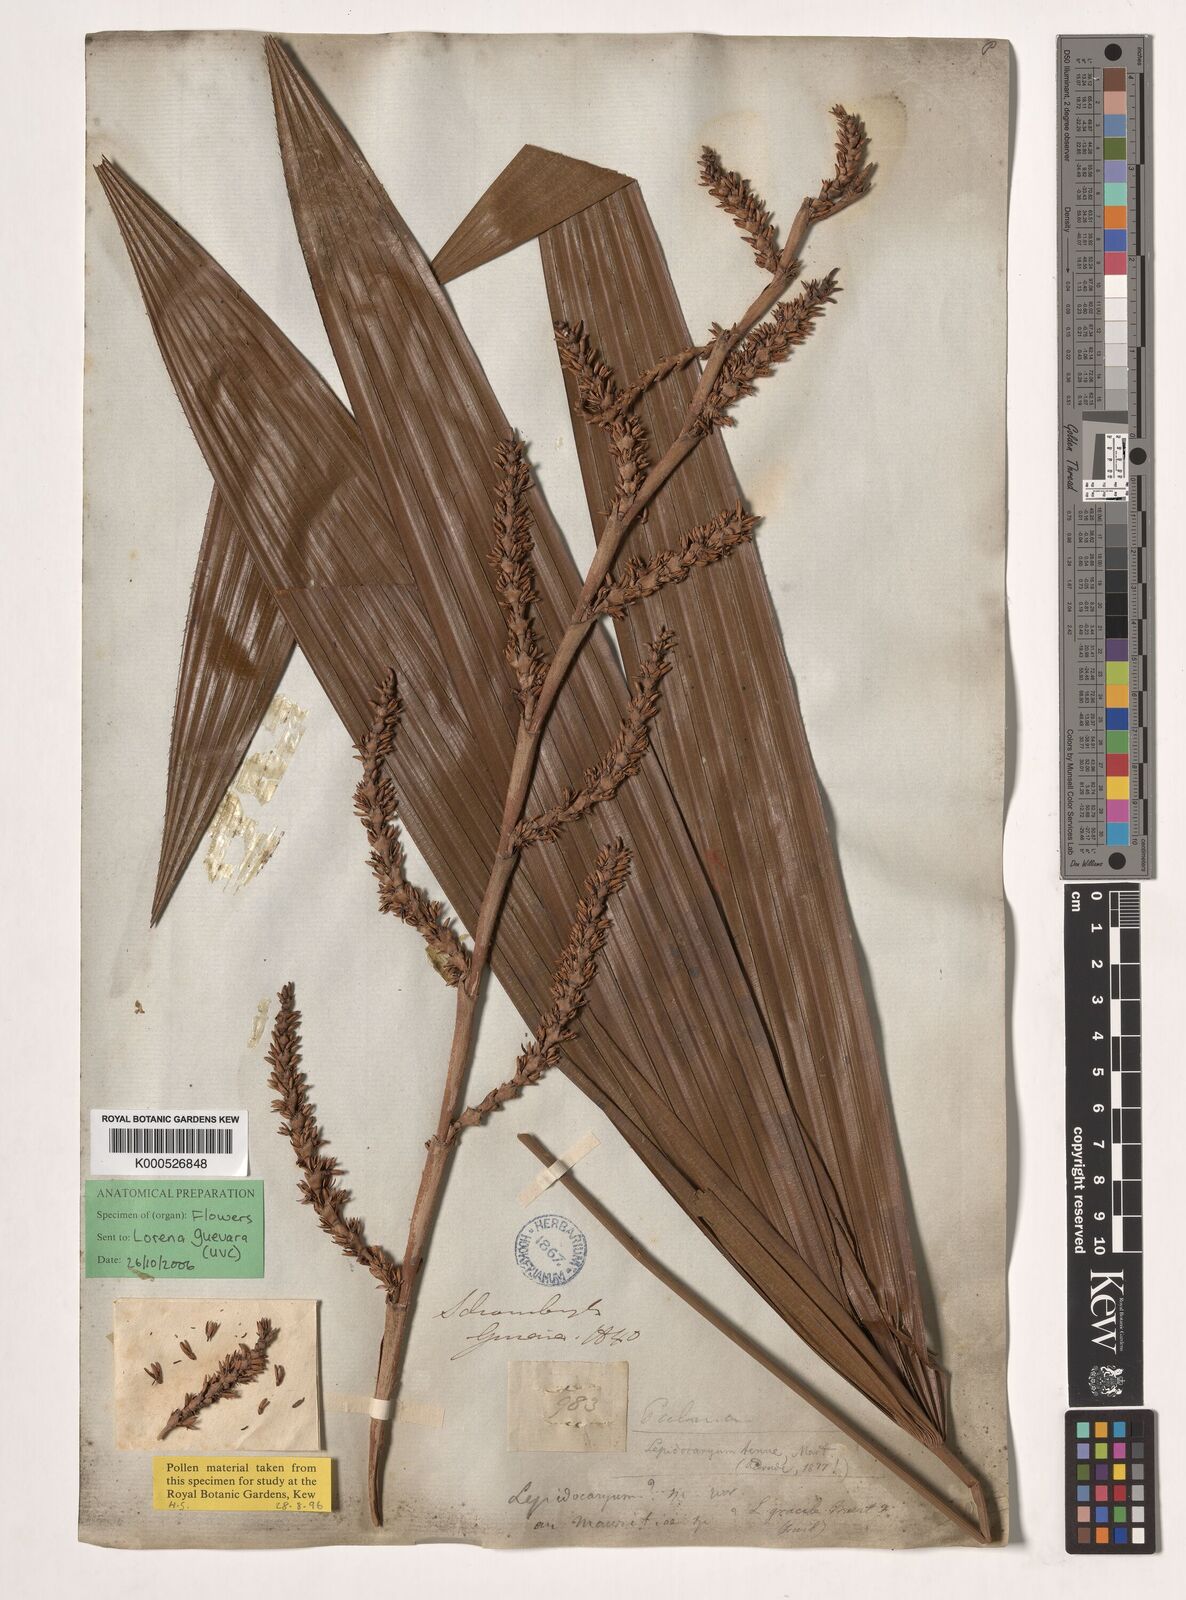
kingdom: Plantae
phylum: Tracheophyta
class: Liliopsida
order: Arecales
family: Arecaceae
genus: Lepidocaryum
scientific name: Lepidocaryum tenue
